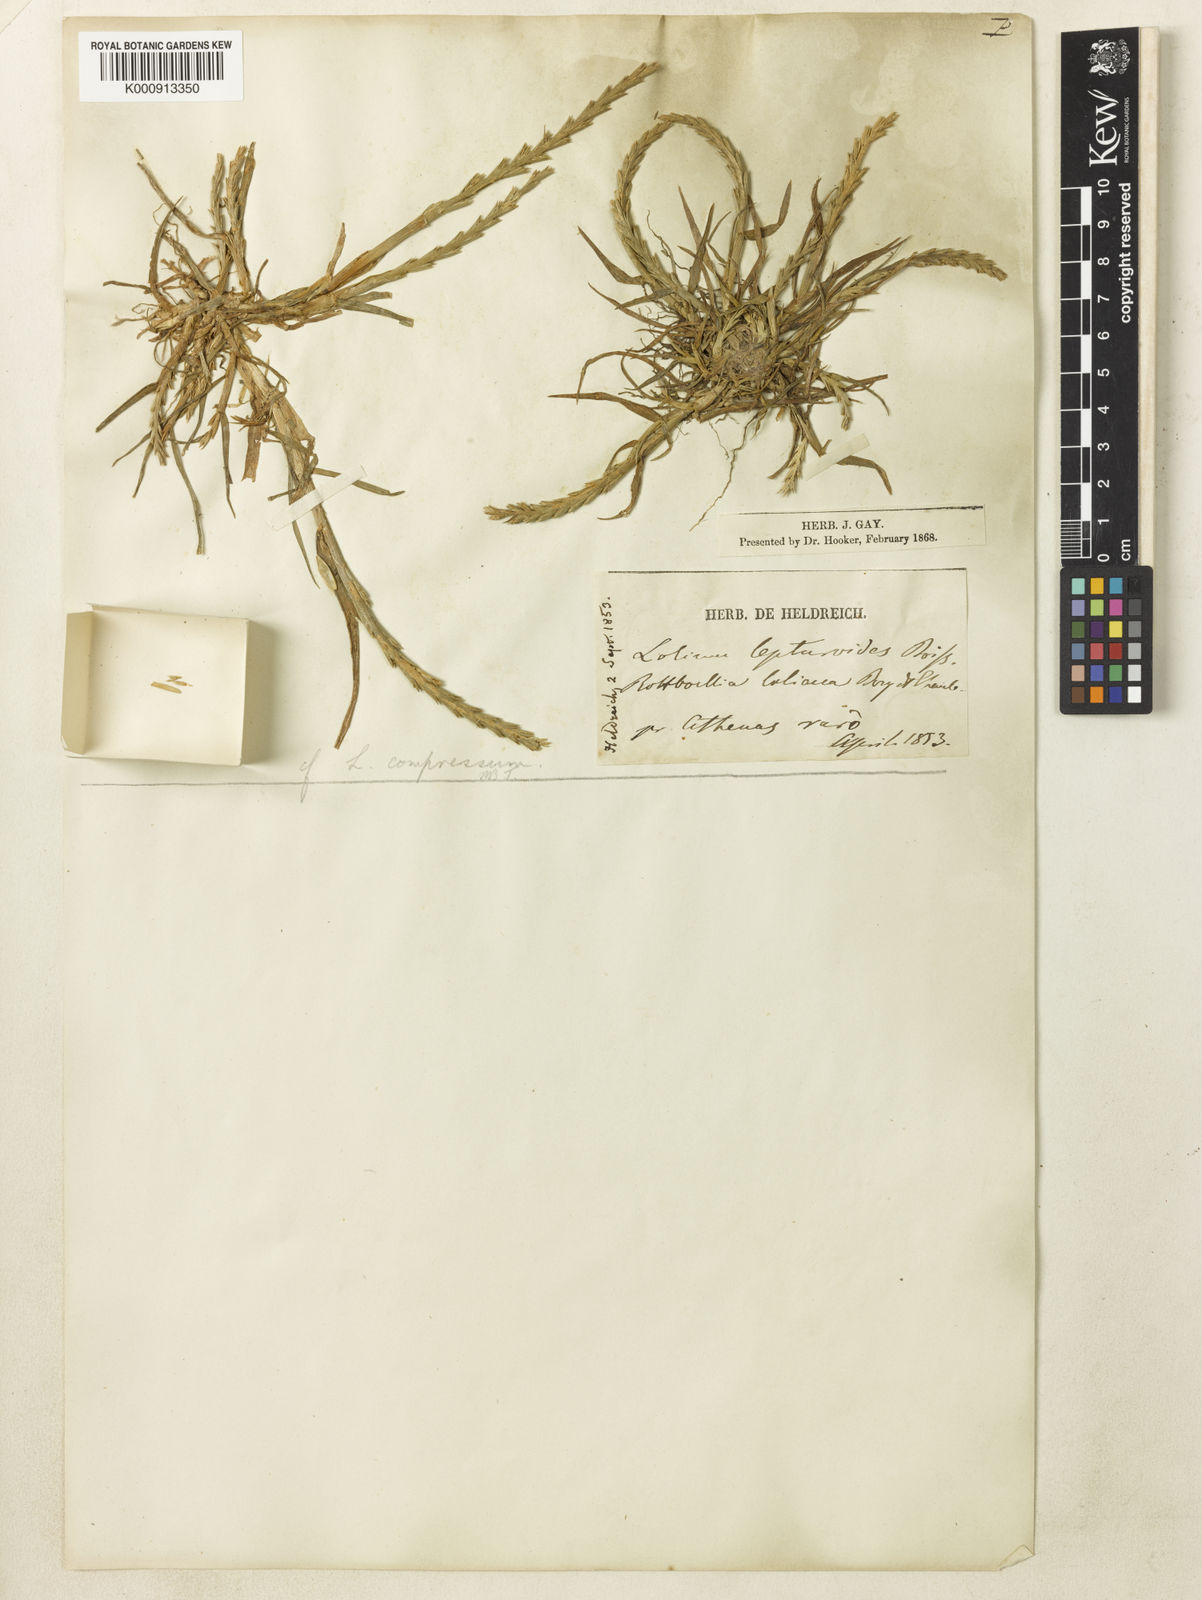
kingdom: Plantae
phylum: Tracheophyta
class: Liliopsida
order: Poales
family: Poaceae
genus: Lolium
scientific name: Lolium rigidum
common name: Wimmera ryegrass
